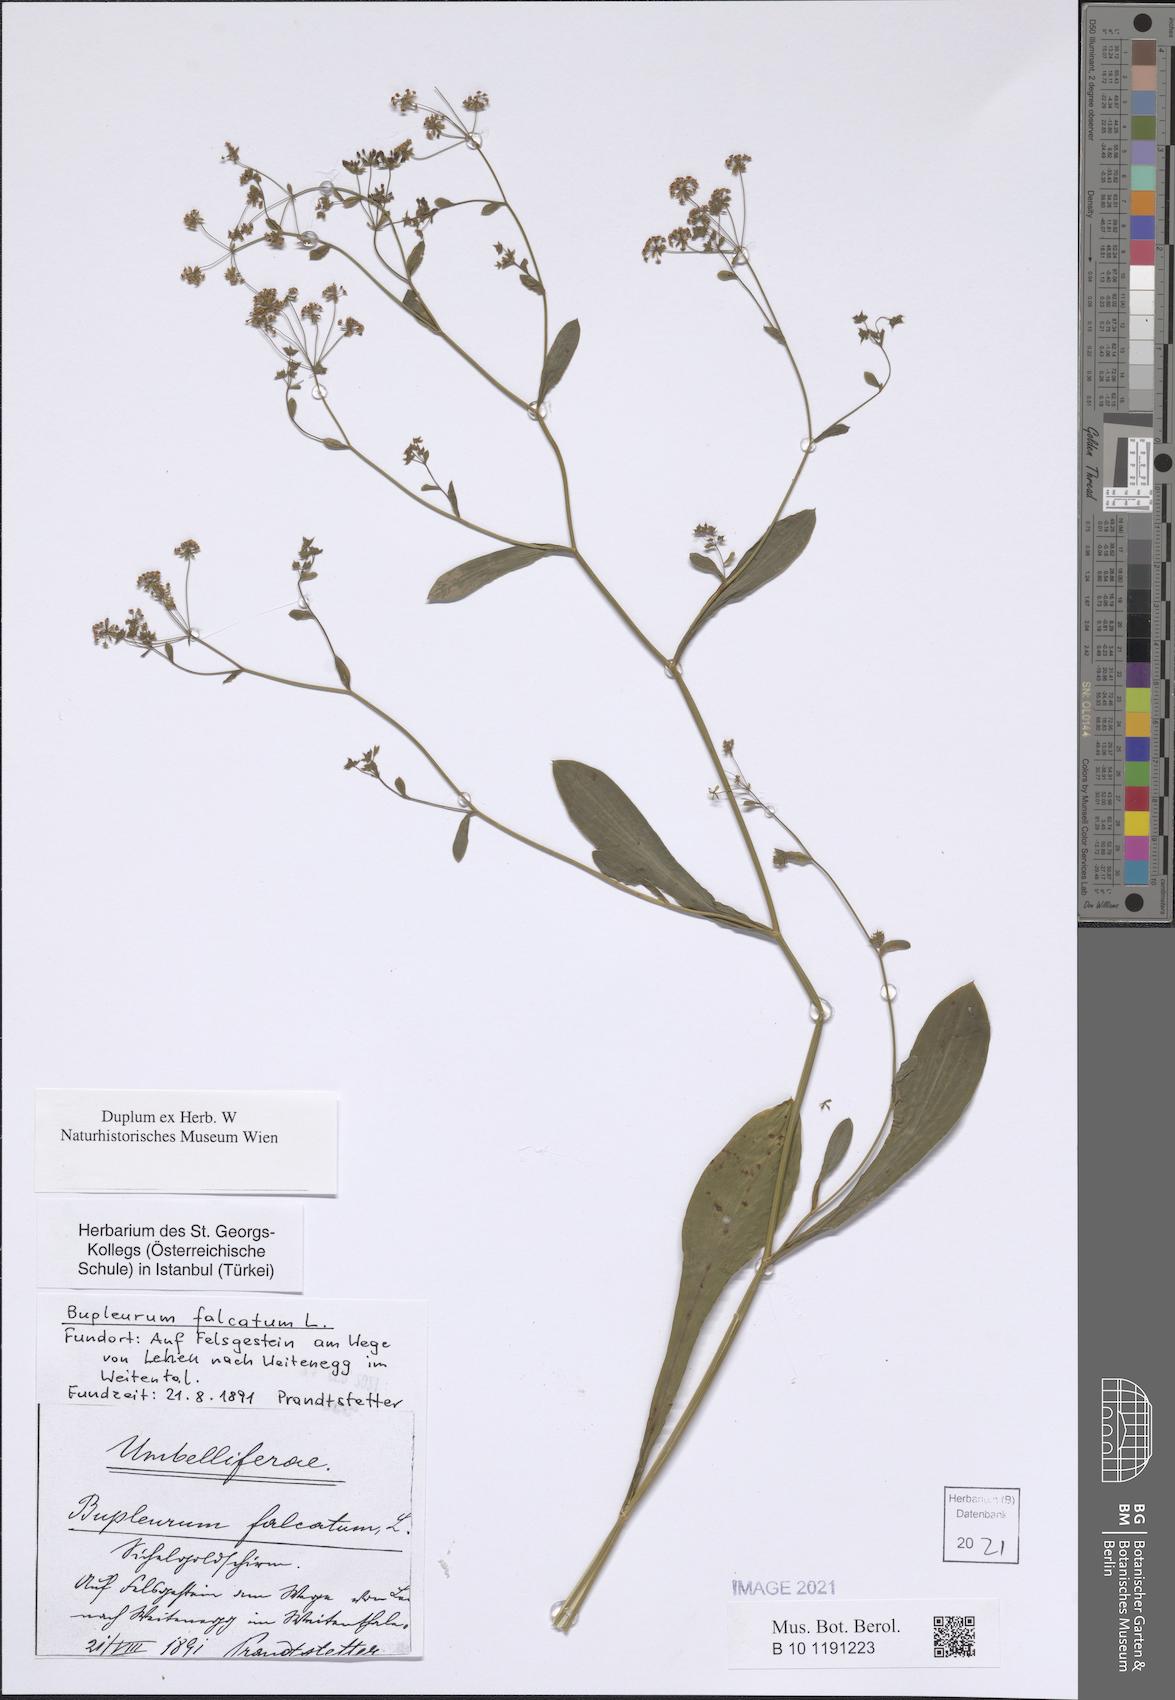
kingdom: Plantae
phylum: Tracheophyta
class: Magnoliopsida
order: Apiales
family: Apiaceae
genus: Bupleurum
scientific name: Bupleurum falcatum
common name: Sickle-leaved hare's-ear
